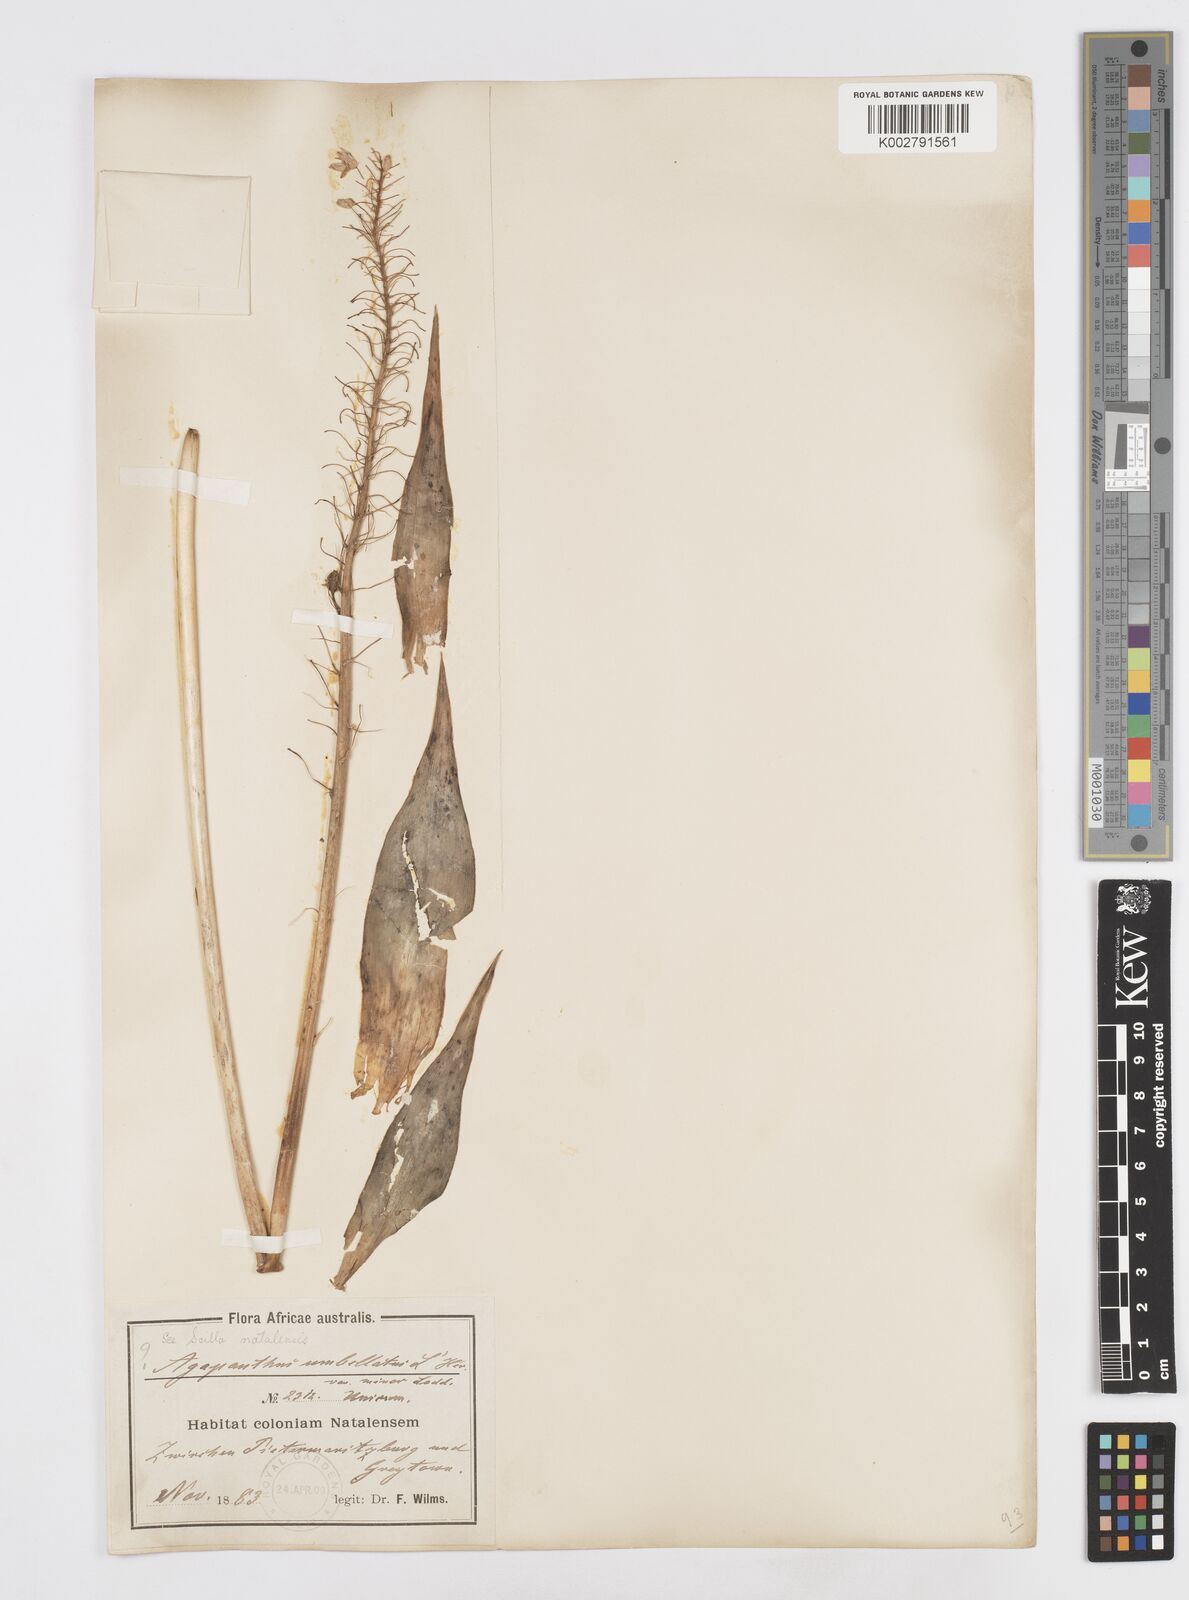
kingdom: Plantae
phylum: Tracheophyta
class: Liliopsida
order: Asparagales
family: Asparagaceae
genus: Merwilla
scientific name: Merwilla plumbea
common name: Blue-squill
